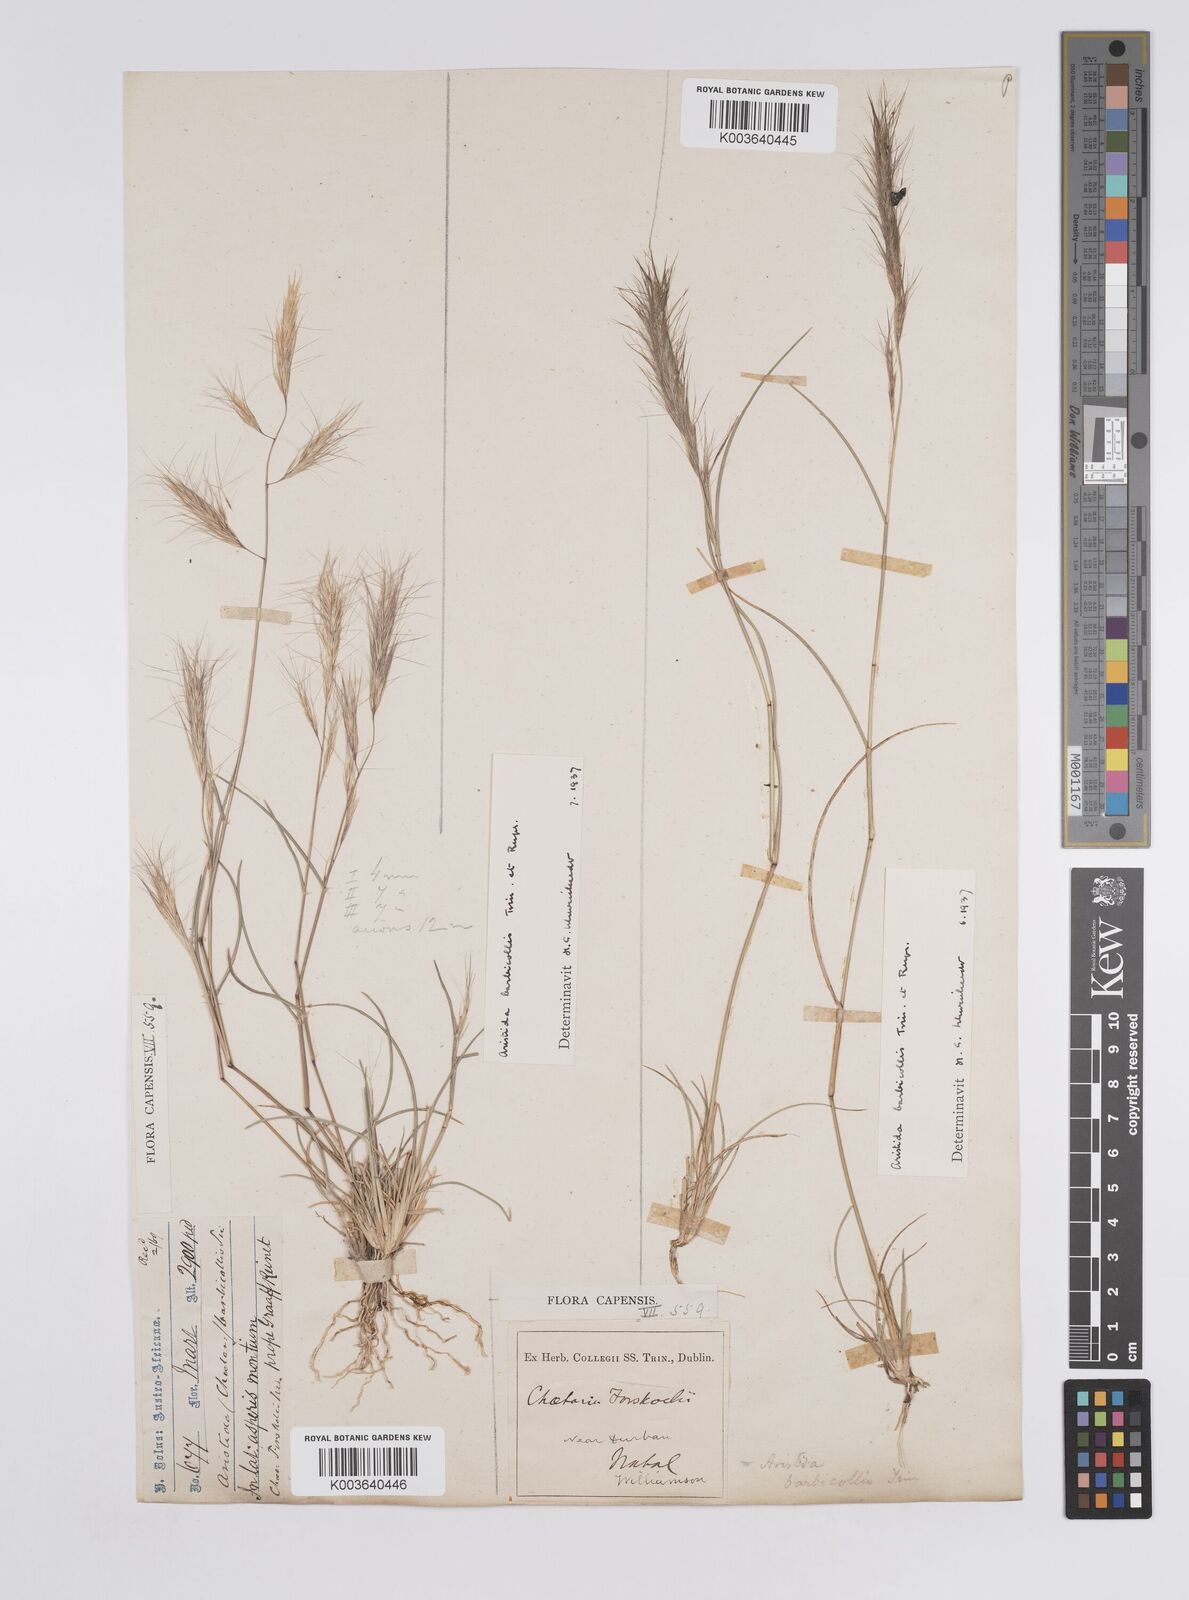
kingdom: Plantae
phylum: Tracheophyta
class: Liliopsida
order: Poales
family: Poaceae
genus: Aristida
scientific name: Aristida barbicollis
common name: Spreading prickle grass
